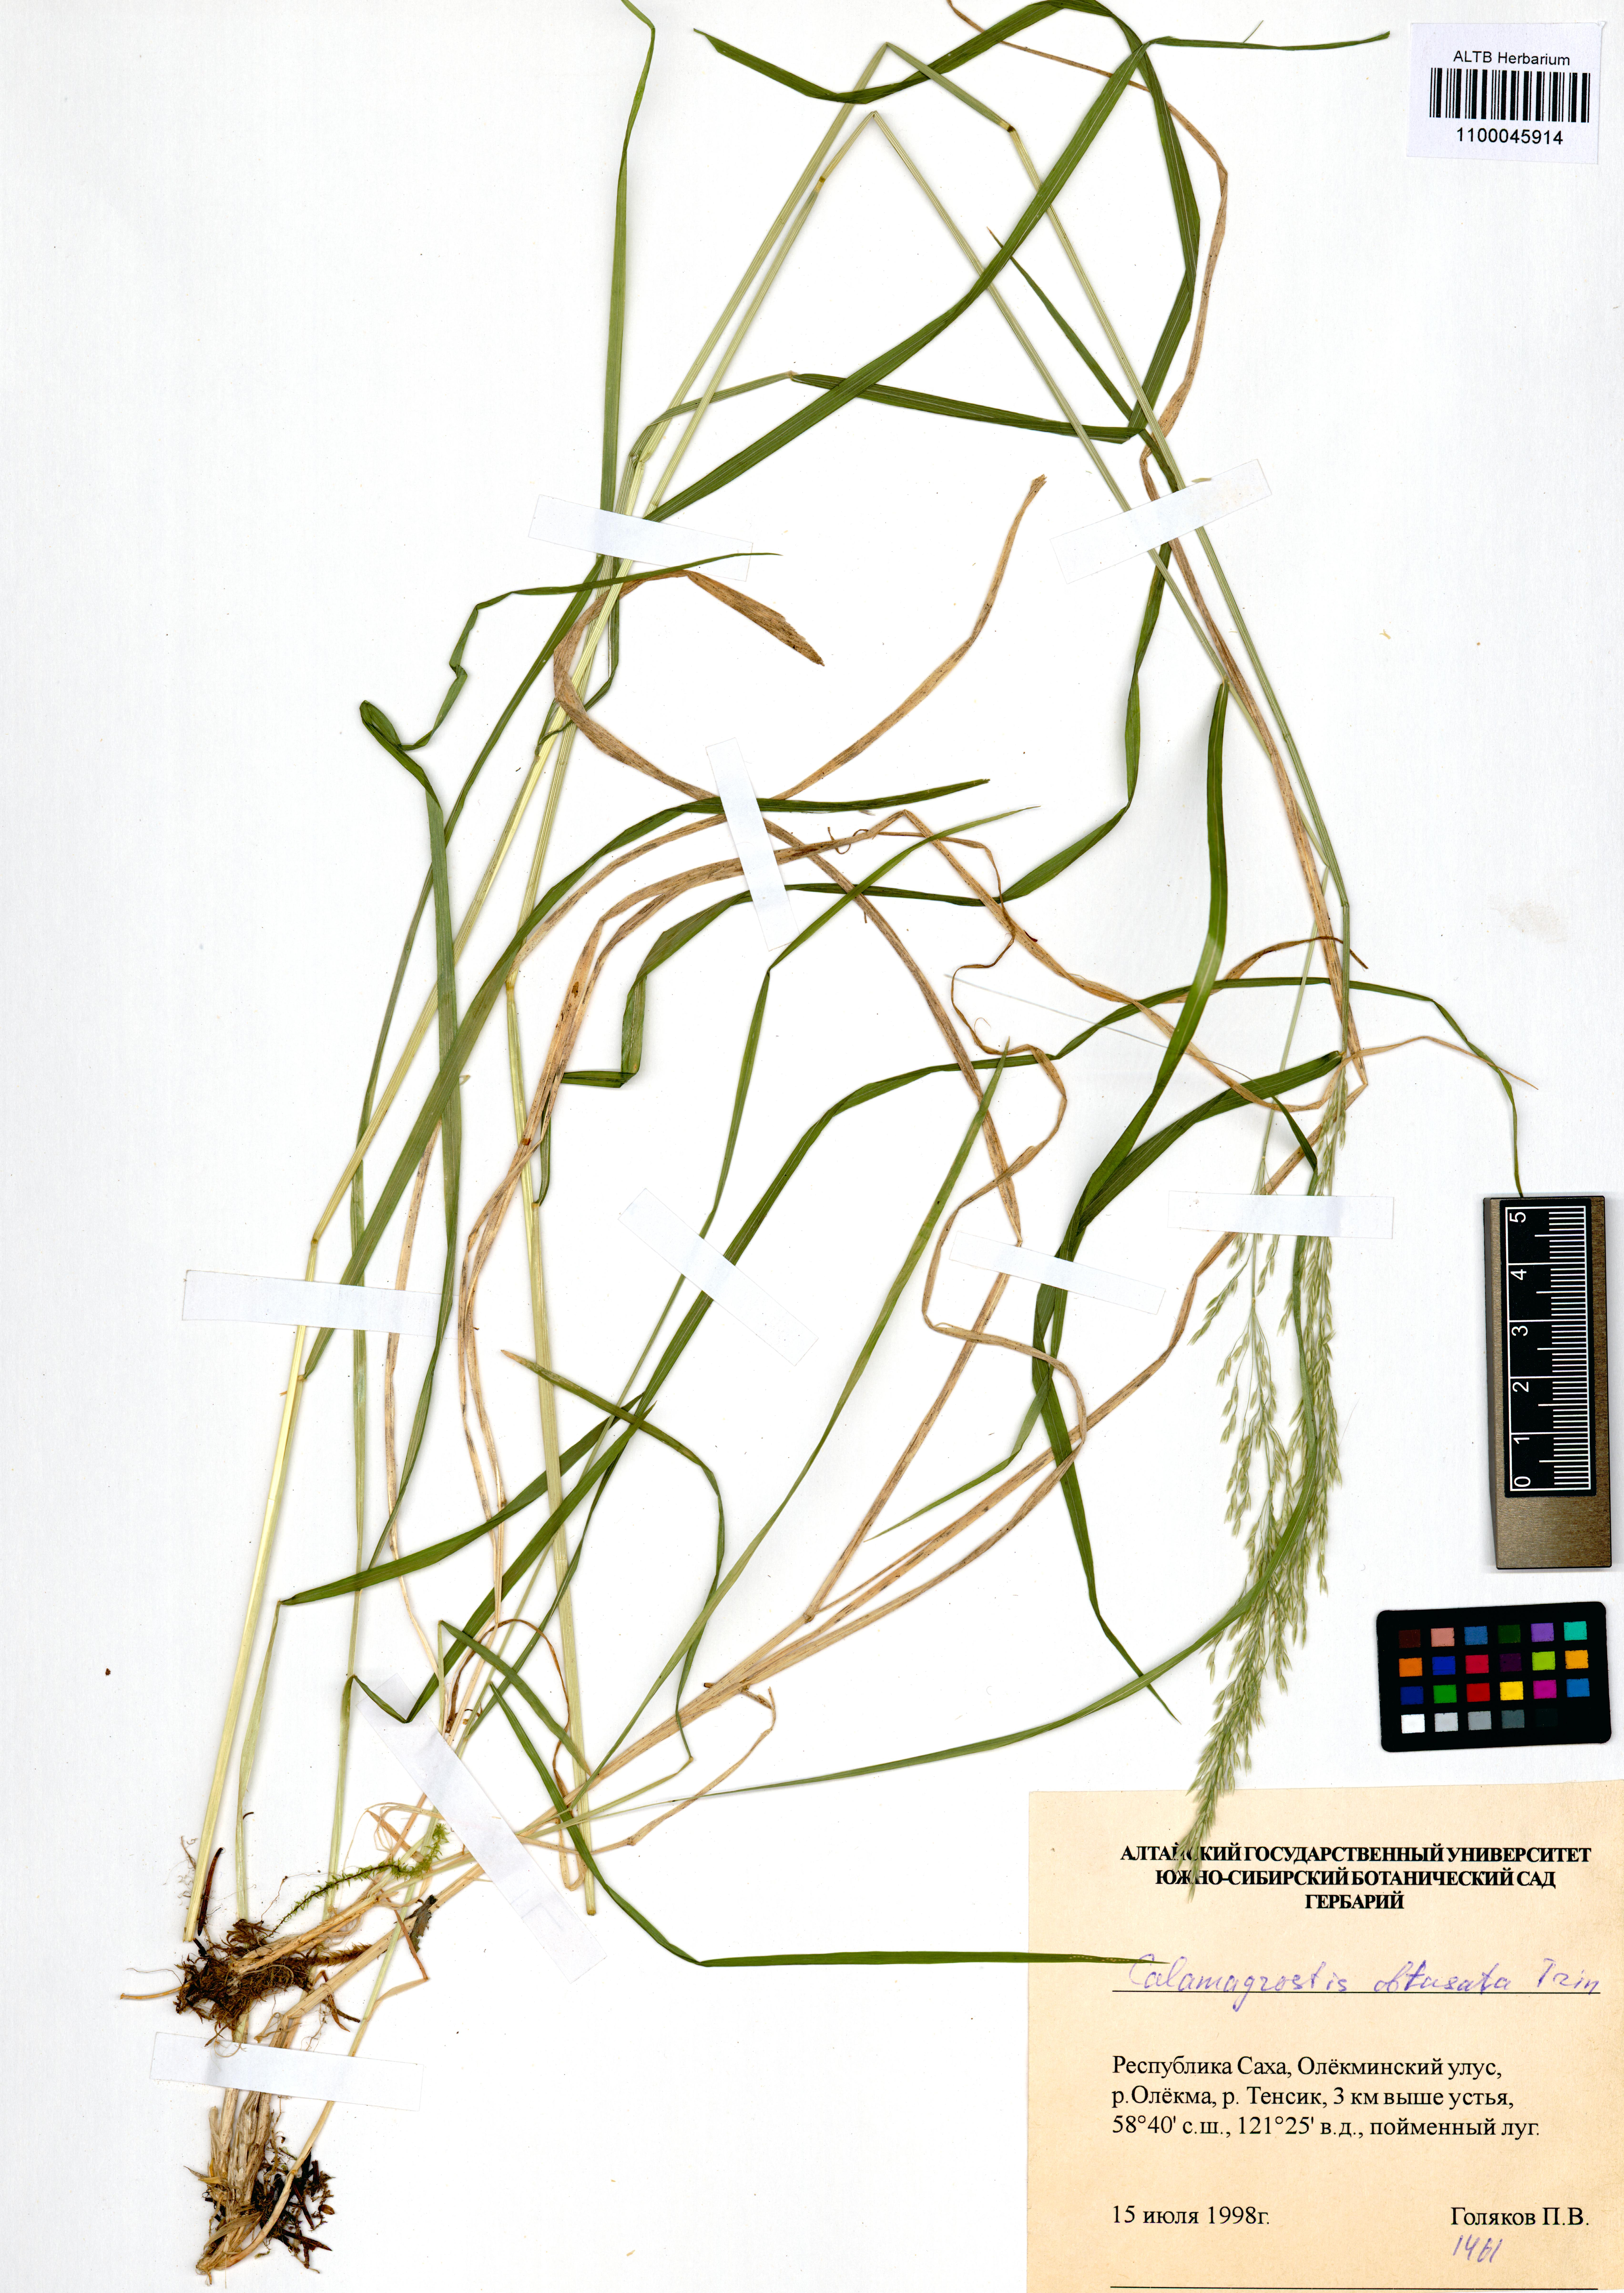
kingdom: Plantae
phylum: Tracheophyta
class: Liliopsida
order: Poales
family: Poaceae
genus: Calamagrostis
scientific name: Calamagrostis obtusata
